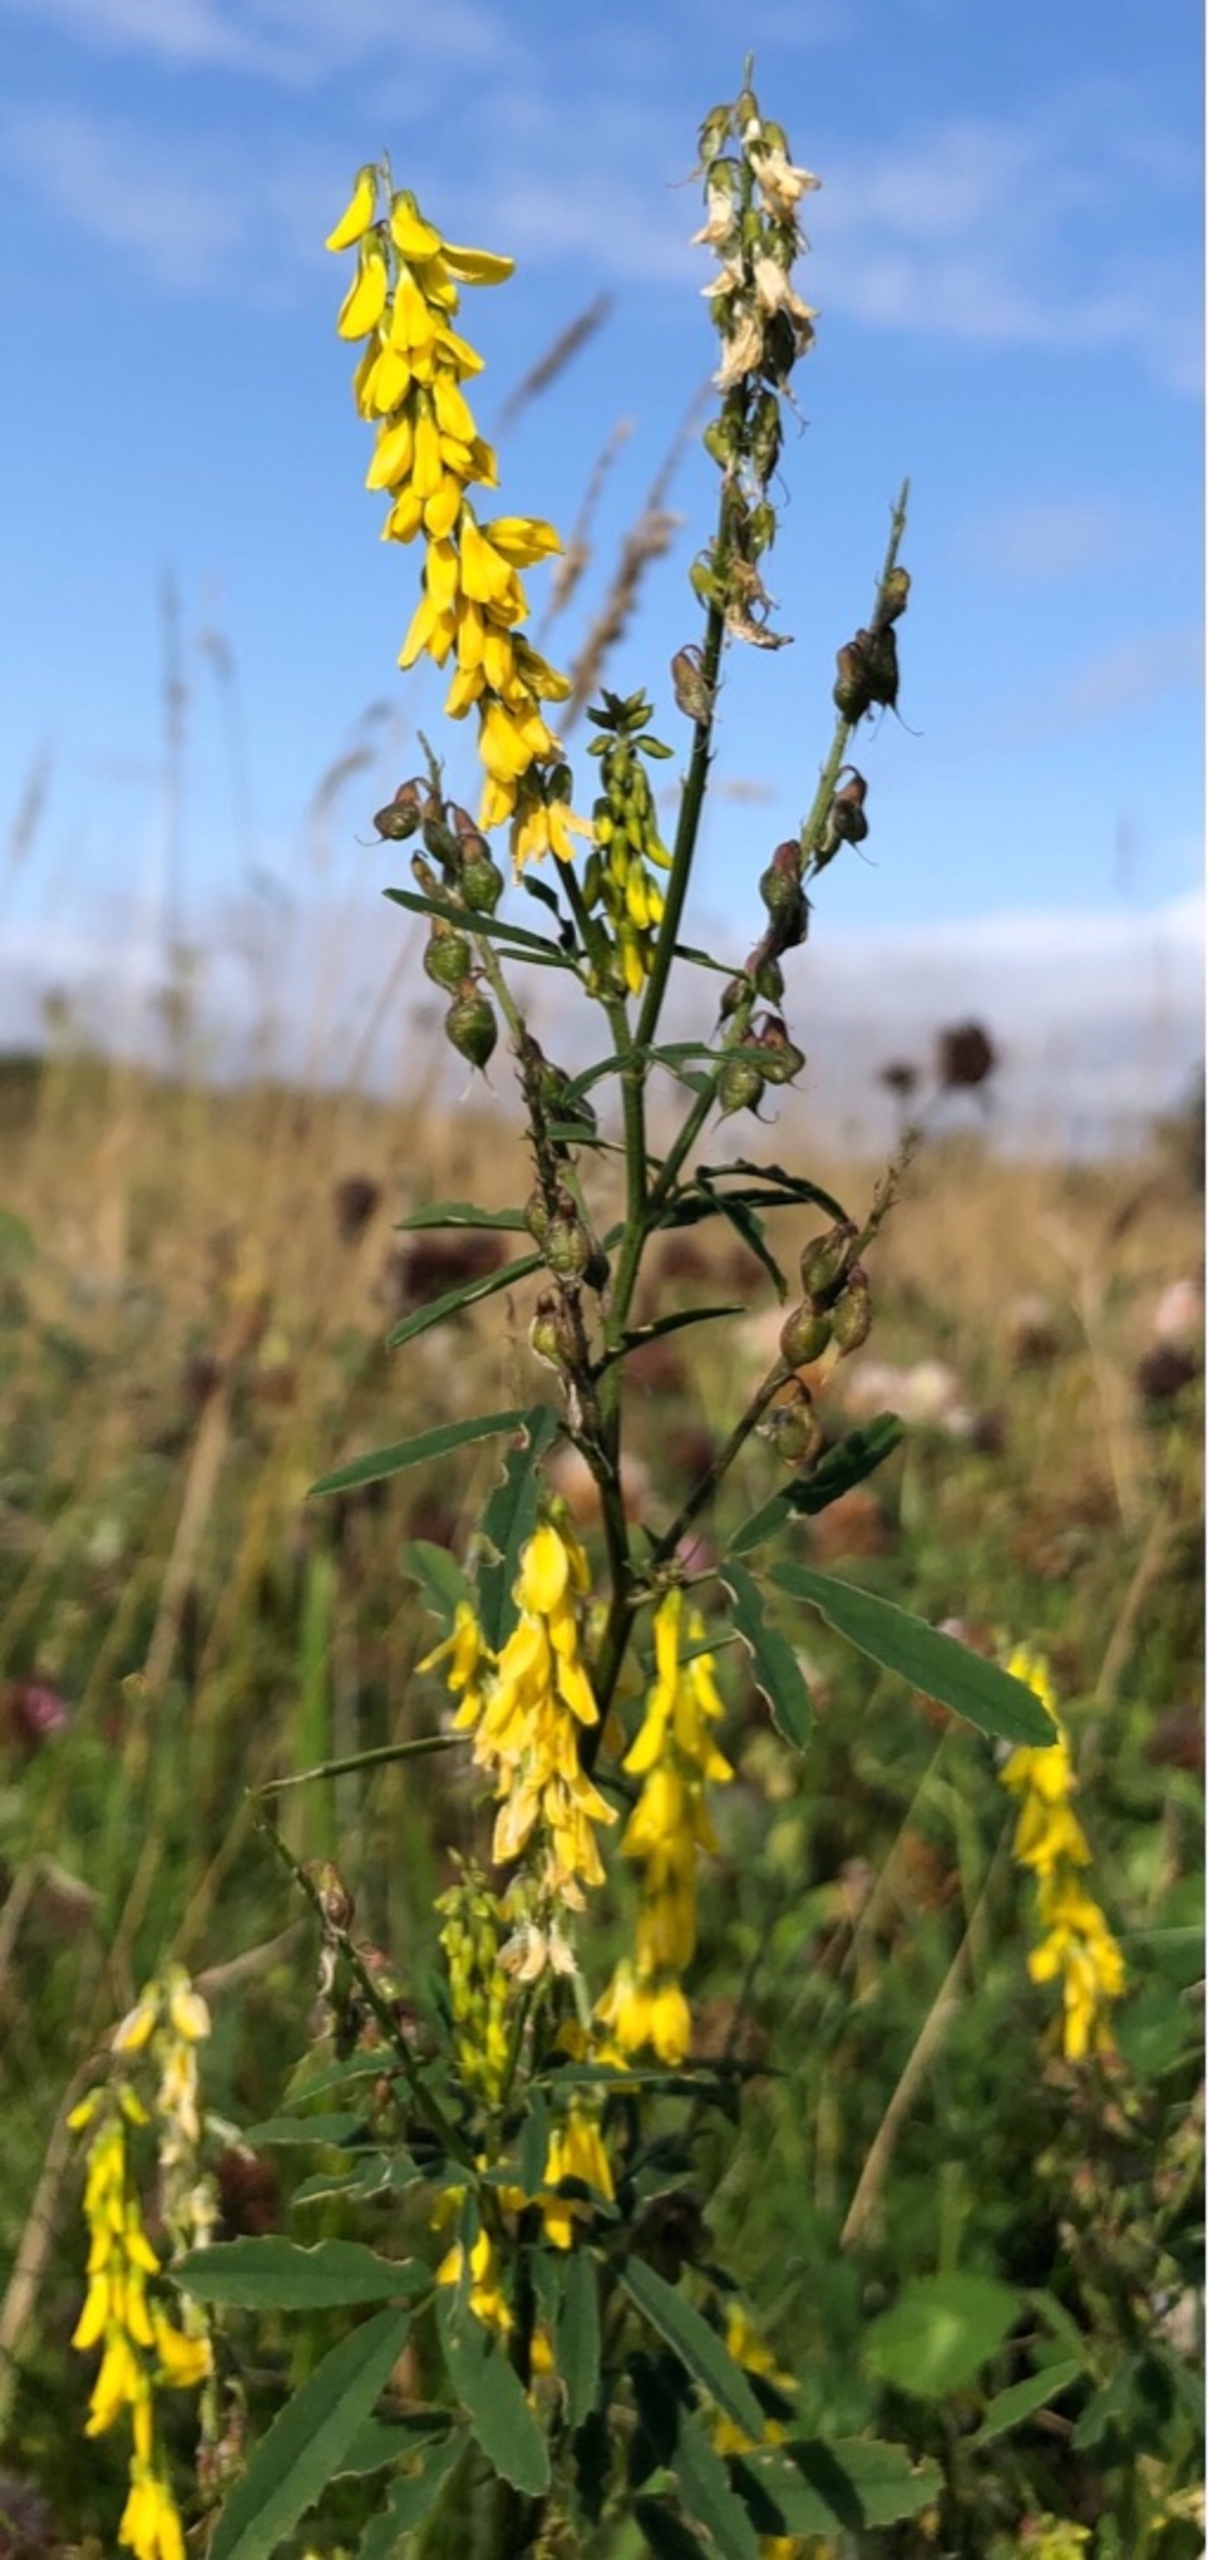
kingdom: Plantae
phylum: Tracheophyta
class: Magnoliopsida
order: Fabales
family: Fabaceae
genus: Melilotus
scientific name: Melilotus officinalis
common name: Mark-stenkløver
